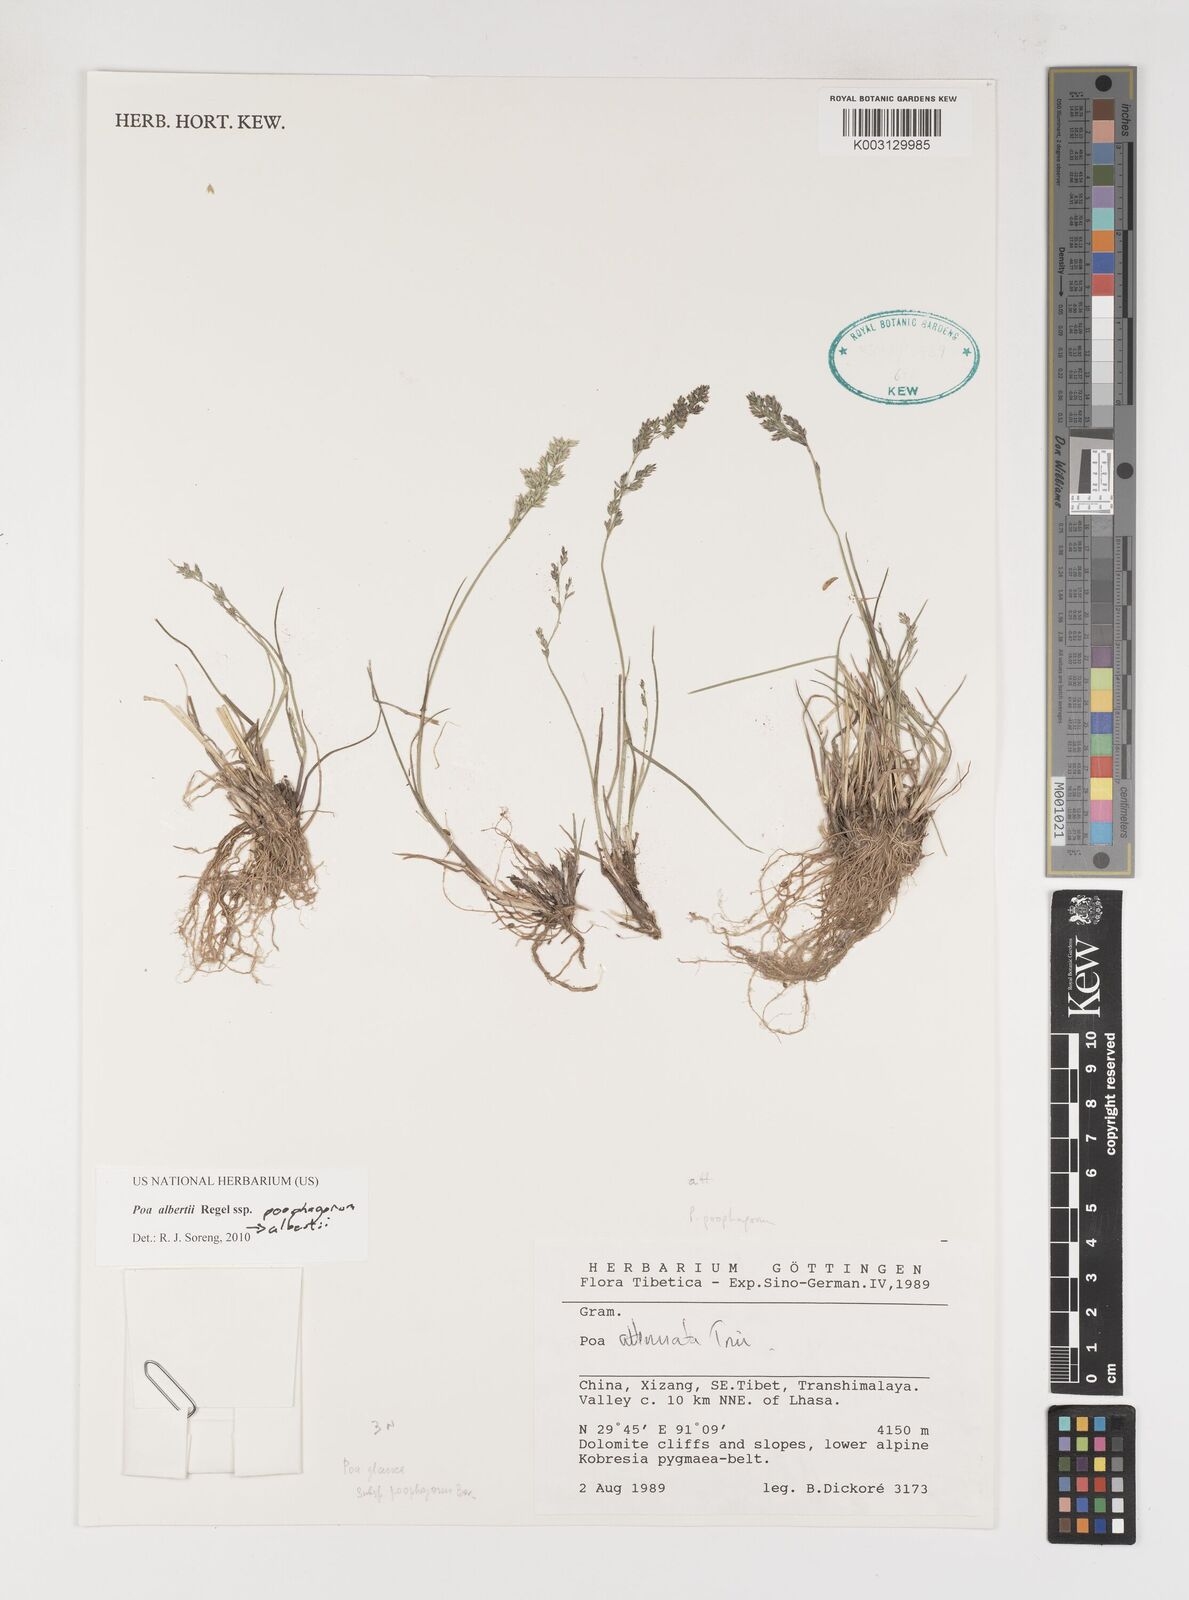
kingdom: Plantae
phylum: Tracheophyta
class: Liliopsida
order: Poales
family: Poaceae
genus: Poa
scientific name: Poa alberti
